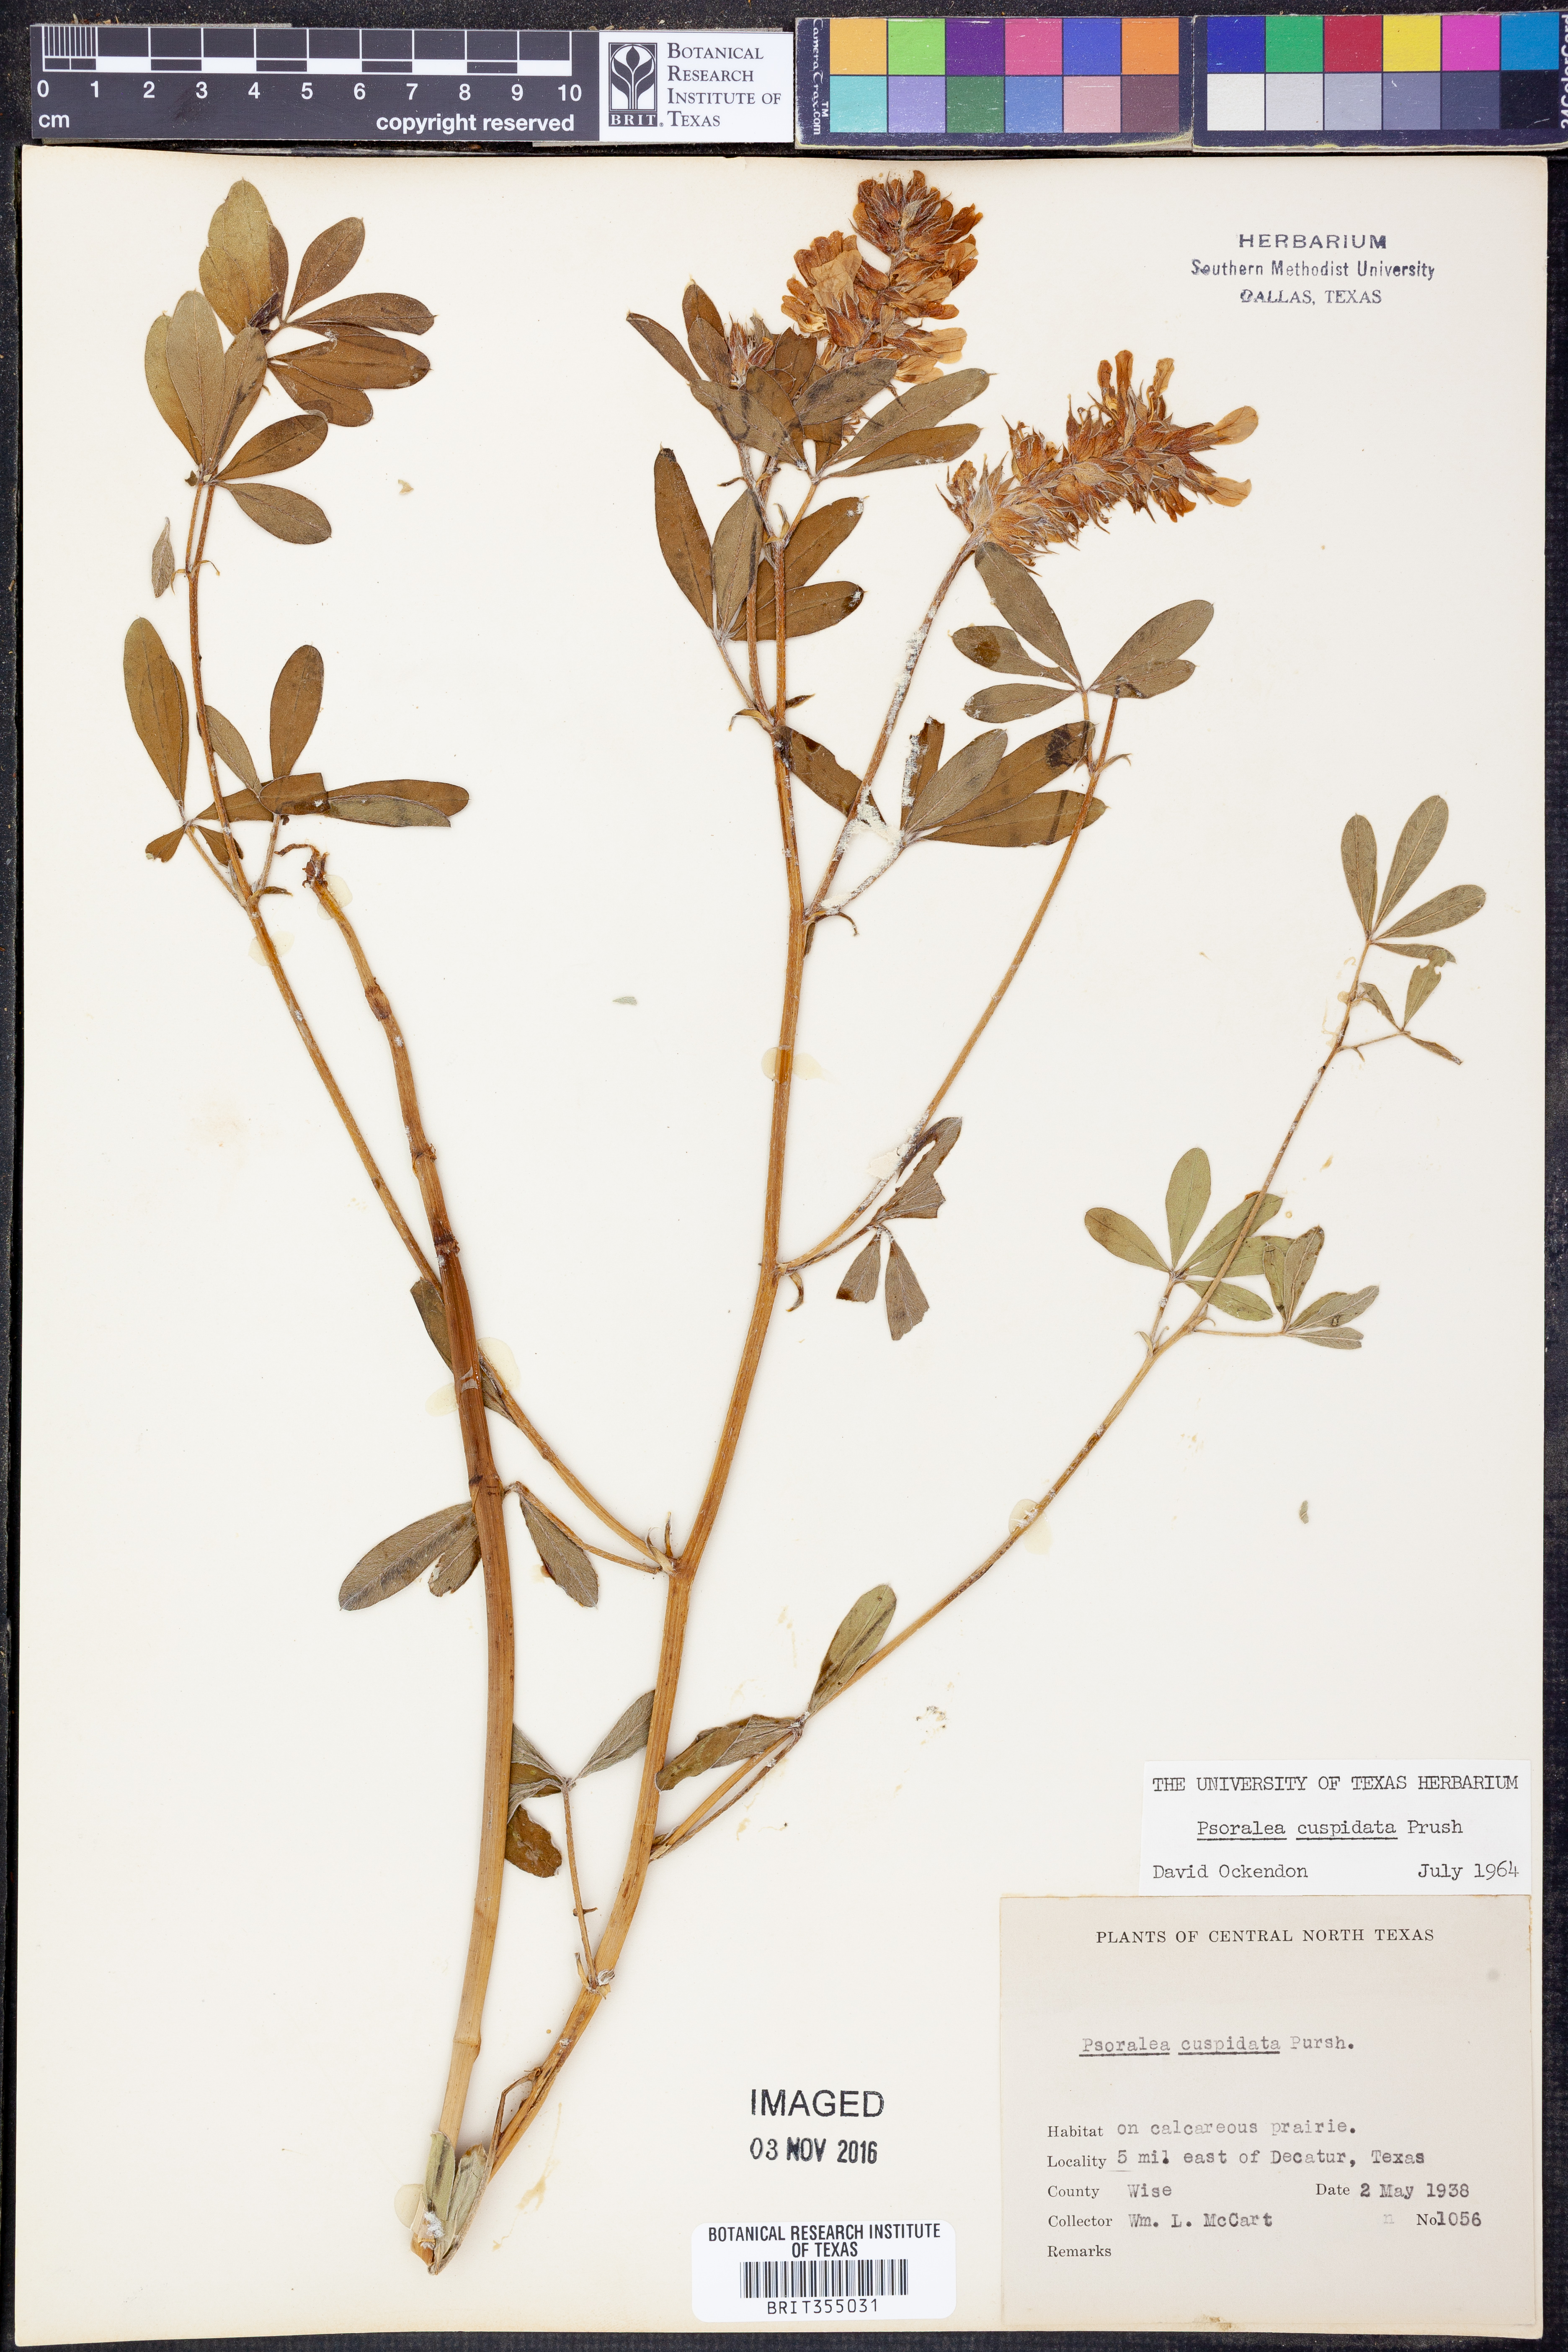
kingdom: Plantae
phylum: Tracheophyta
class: Magnoliopsida
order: Fabales
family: Fabaceae
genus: Pediomelum
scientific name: Pediomelum cuspidatum
